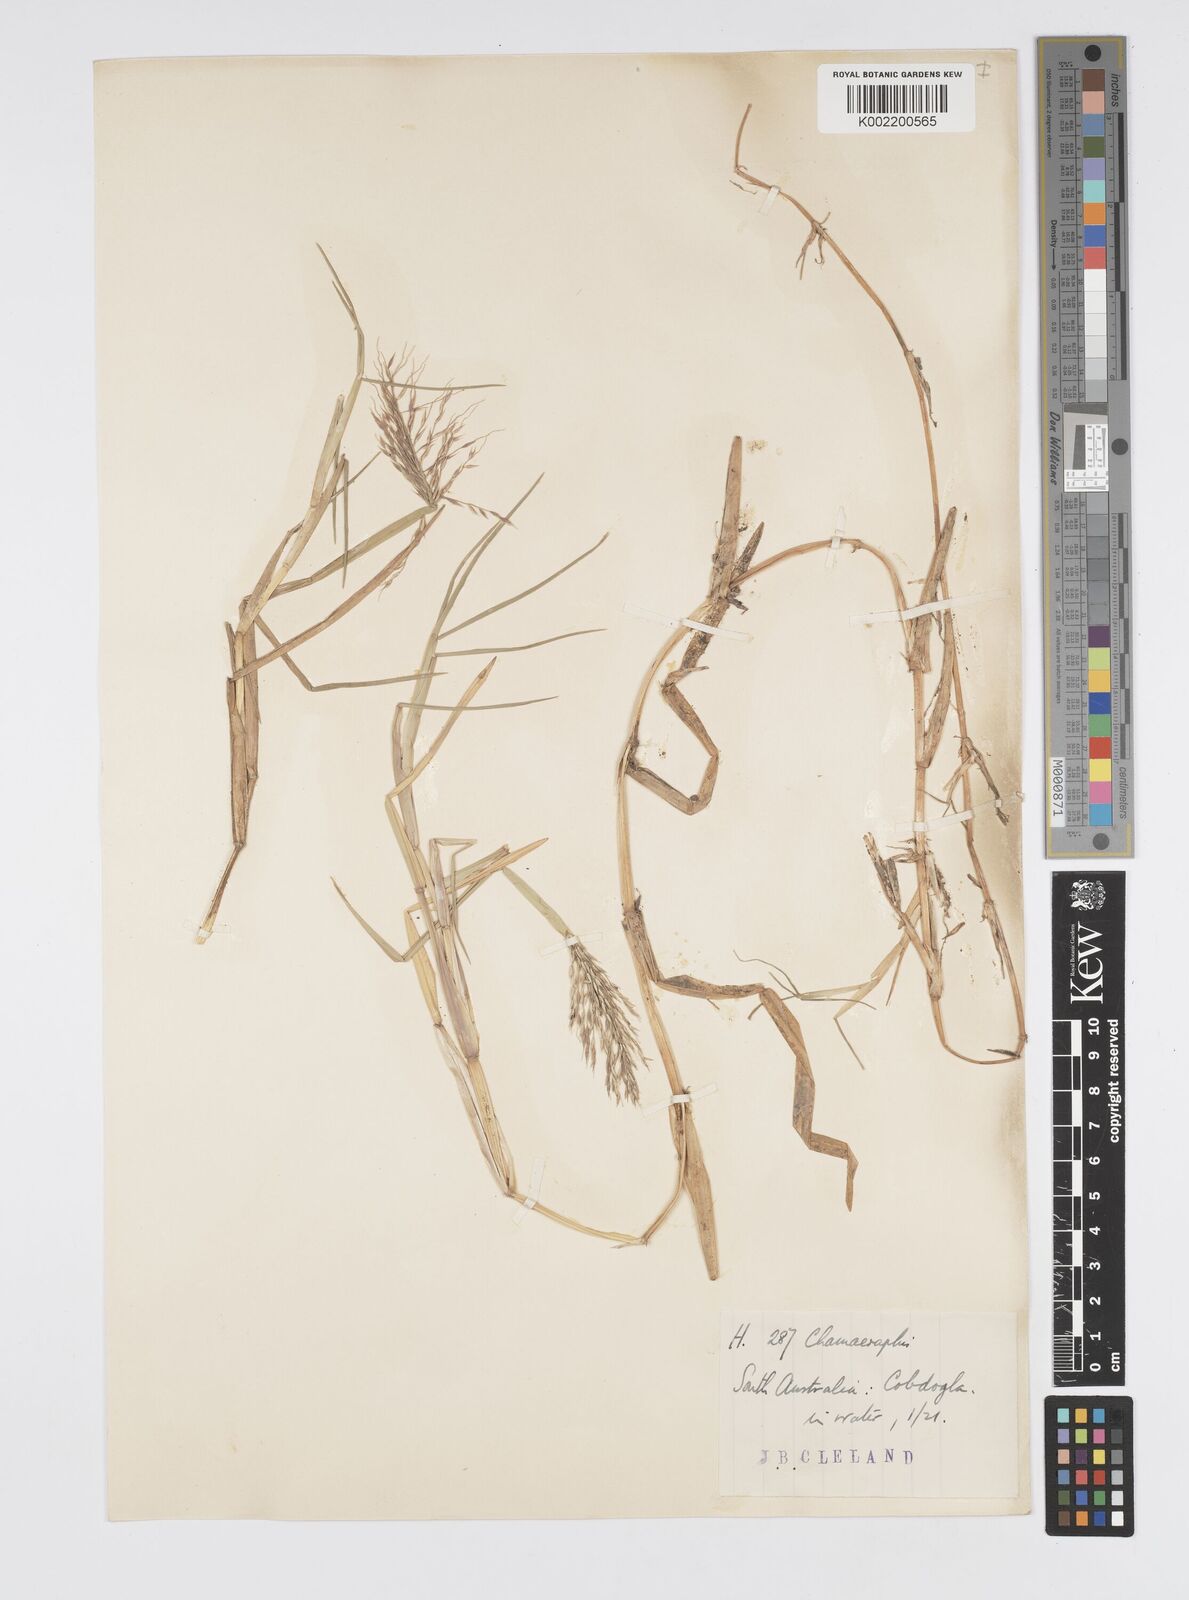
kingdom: Plantae
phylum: Tracheophyta
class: Liliopsida
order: Poales
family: Poaceae
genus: Pseudoraphis
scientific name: Pseudoraphis spinescens
